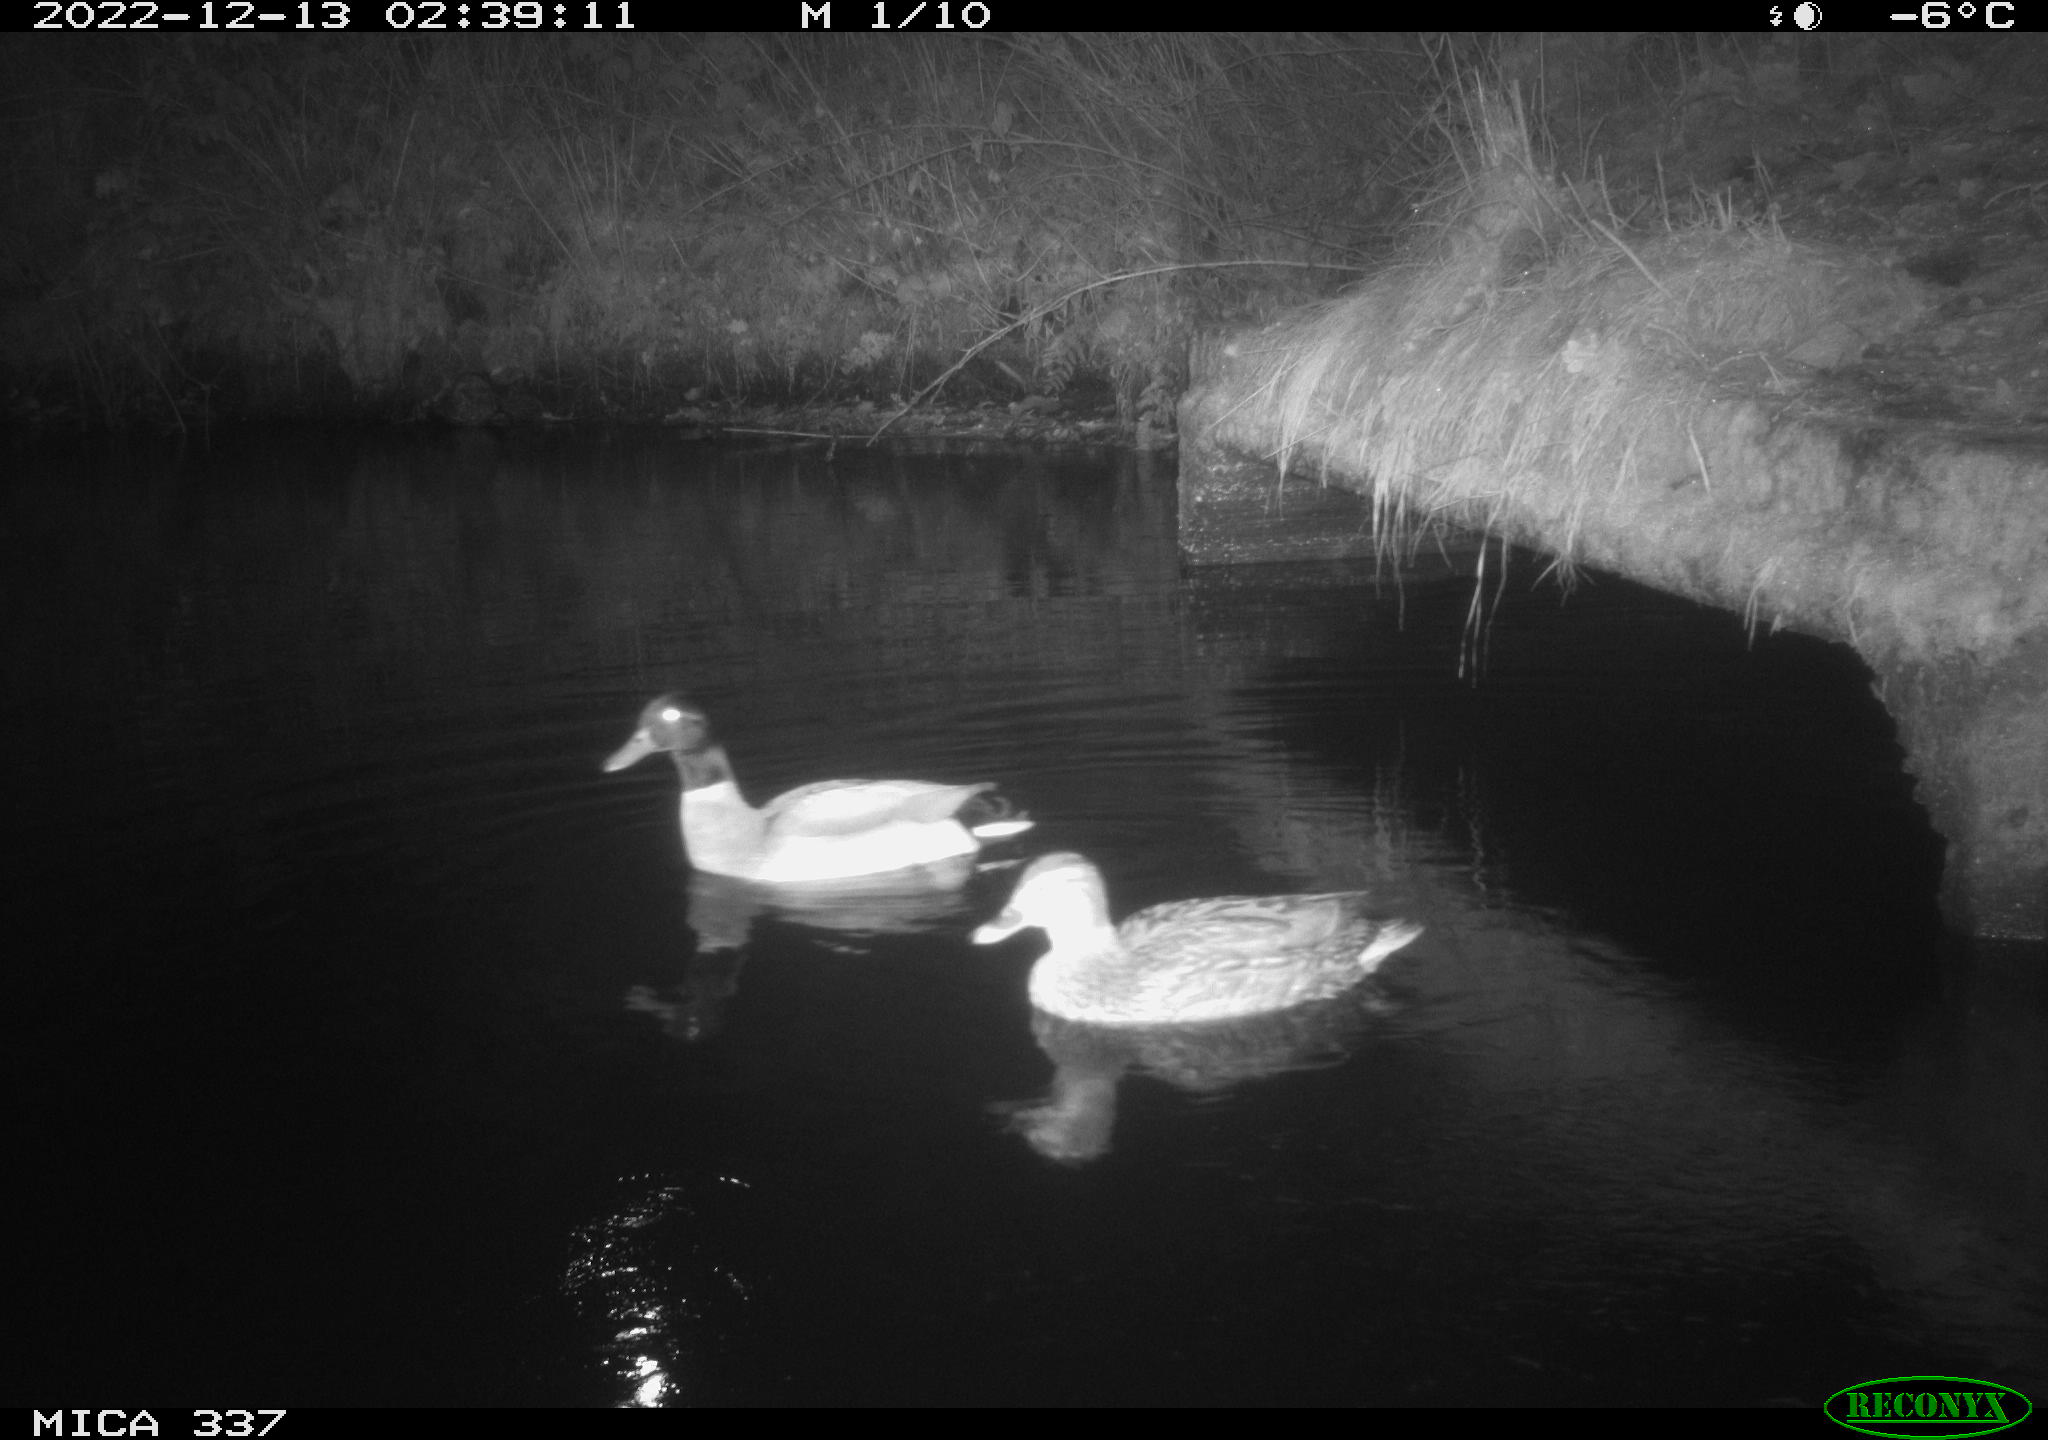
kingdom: Animalia
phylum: Chordata
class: Aves
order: Anseriformes
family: Anatidae
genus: Anas
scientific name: Anas
